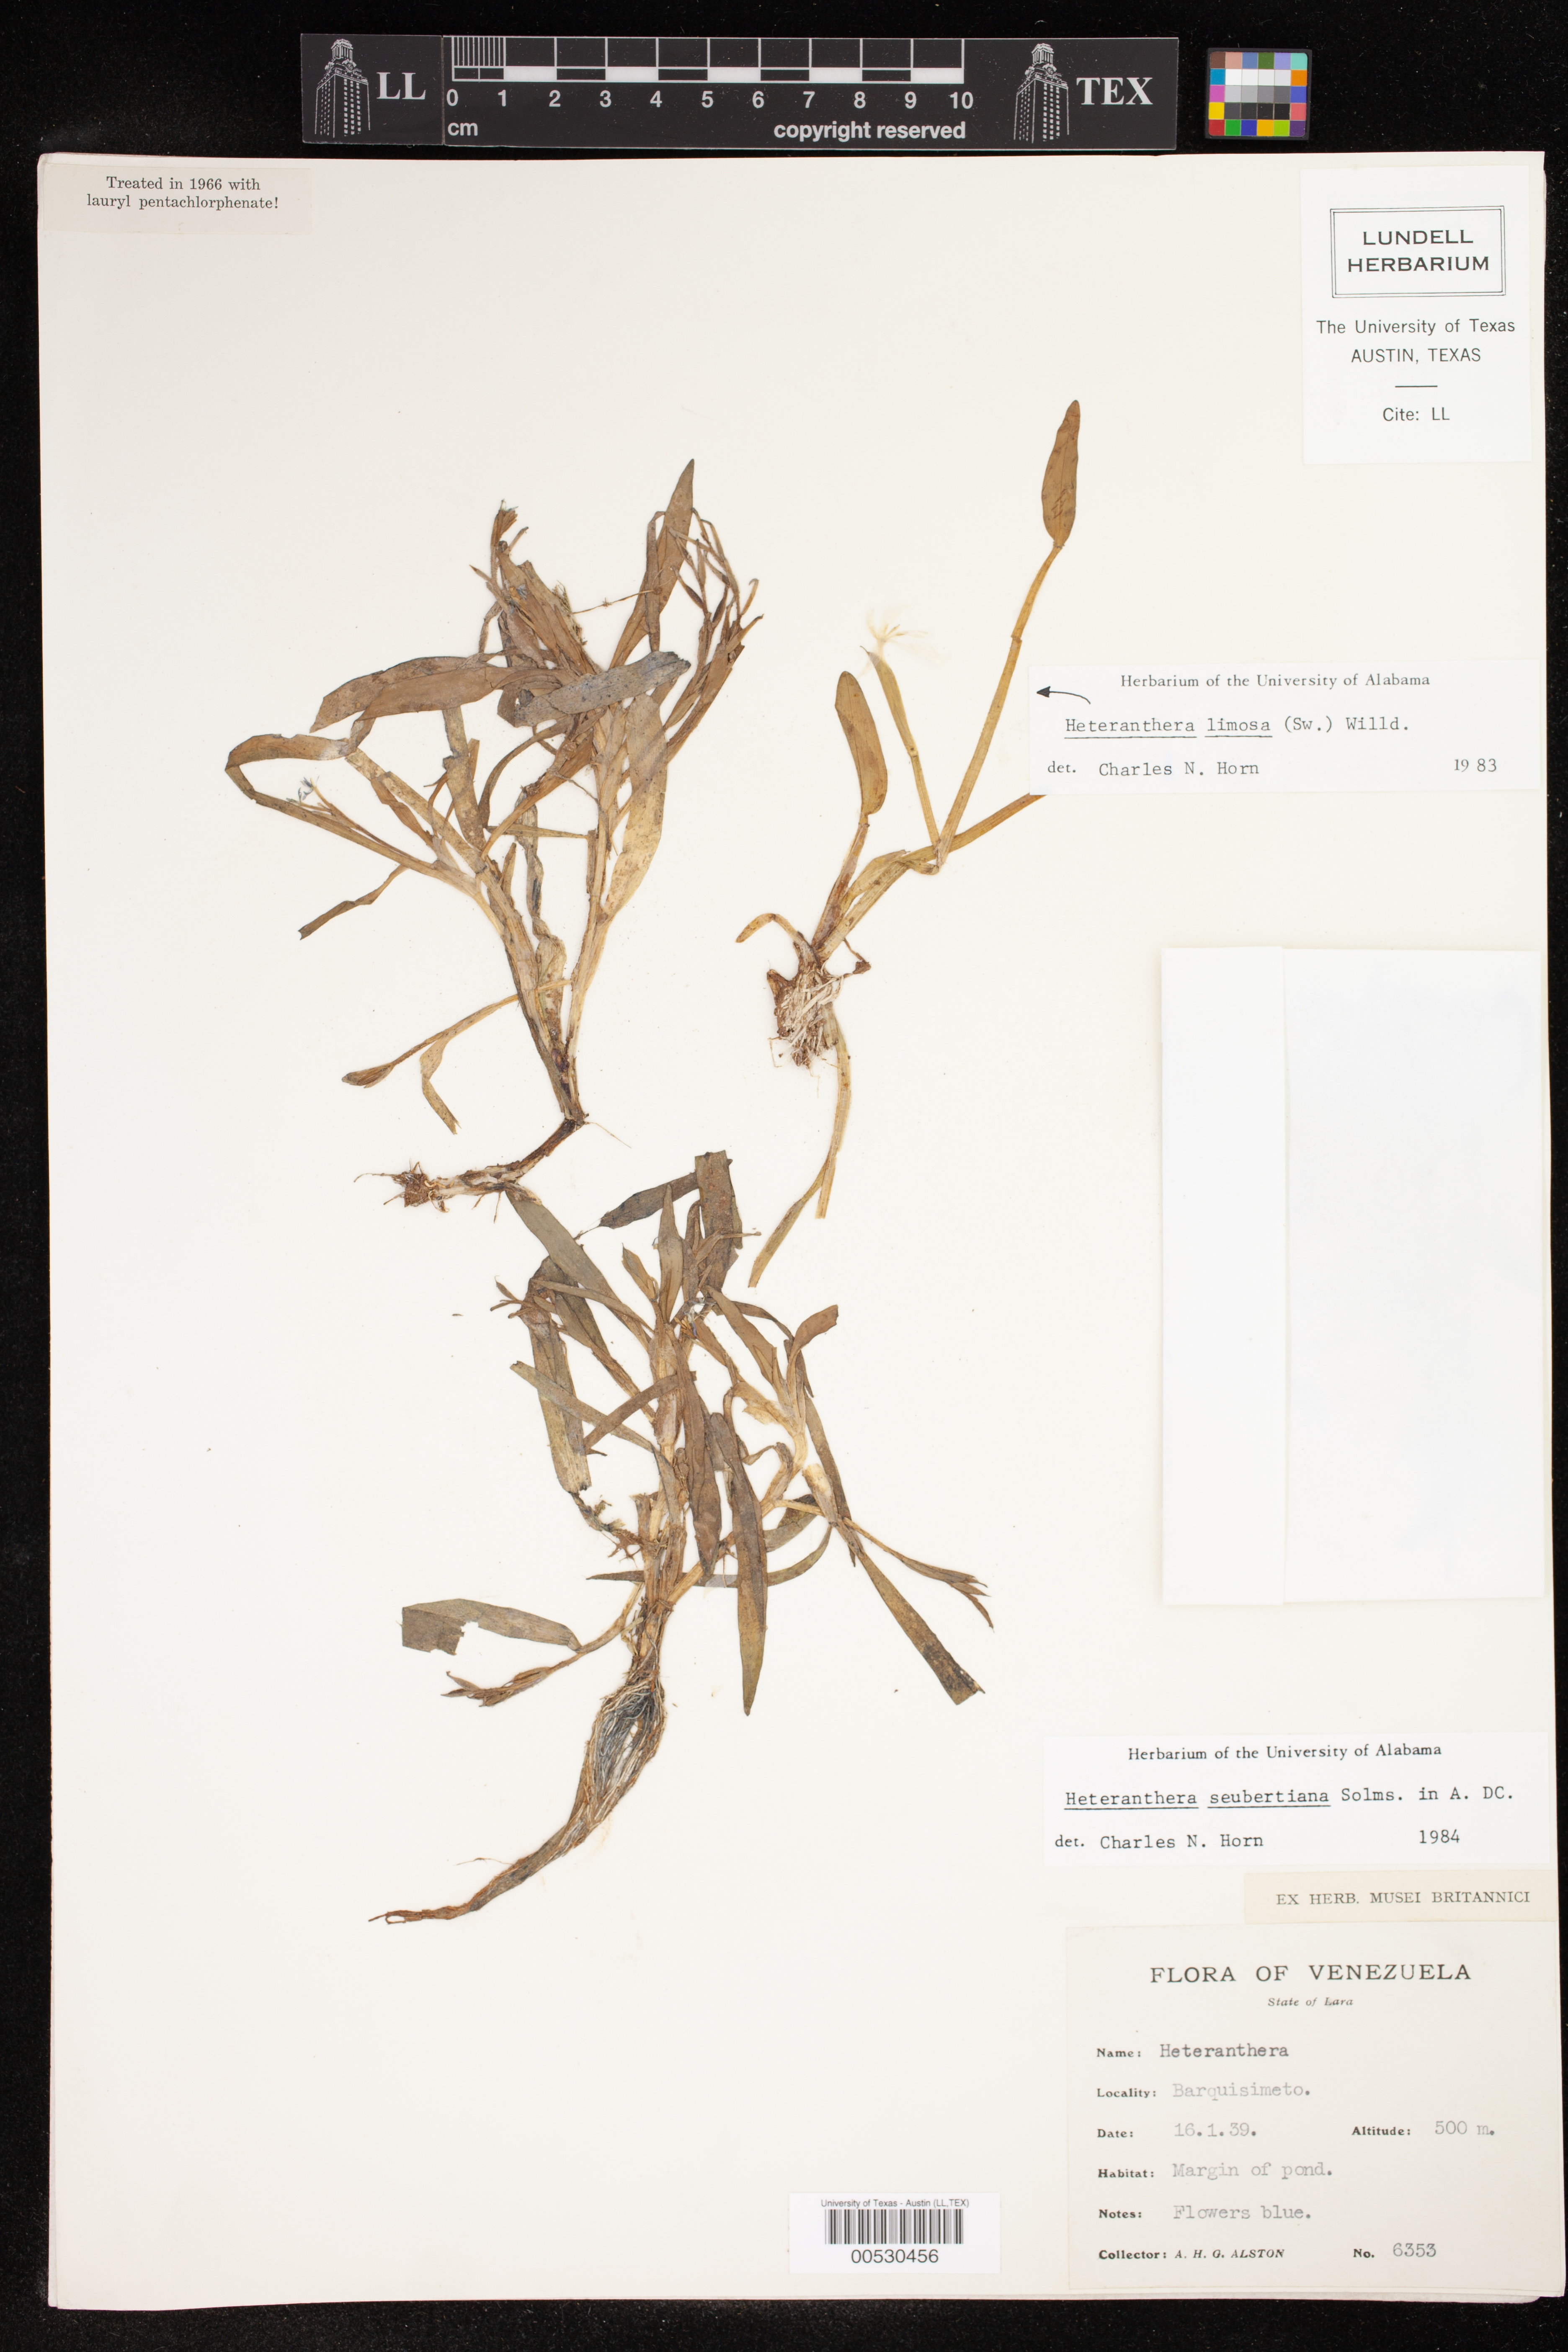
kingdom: Plantae
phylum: Tracheophyta
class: Liliopsida
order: Commelinales
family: Pontederiaceae
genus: Heteranthera
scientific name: Heteranthera seubertiana
